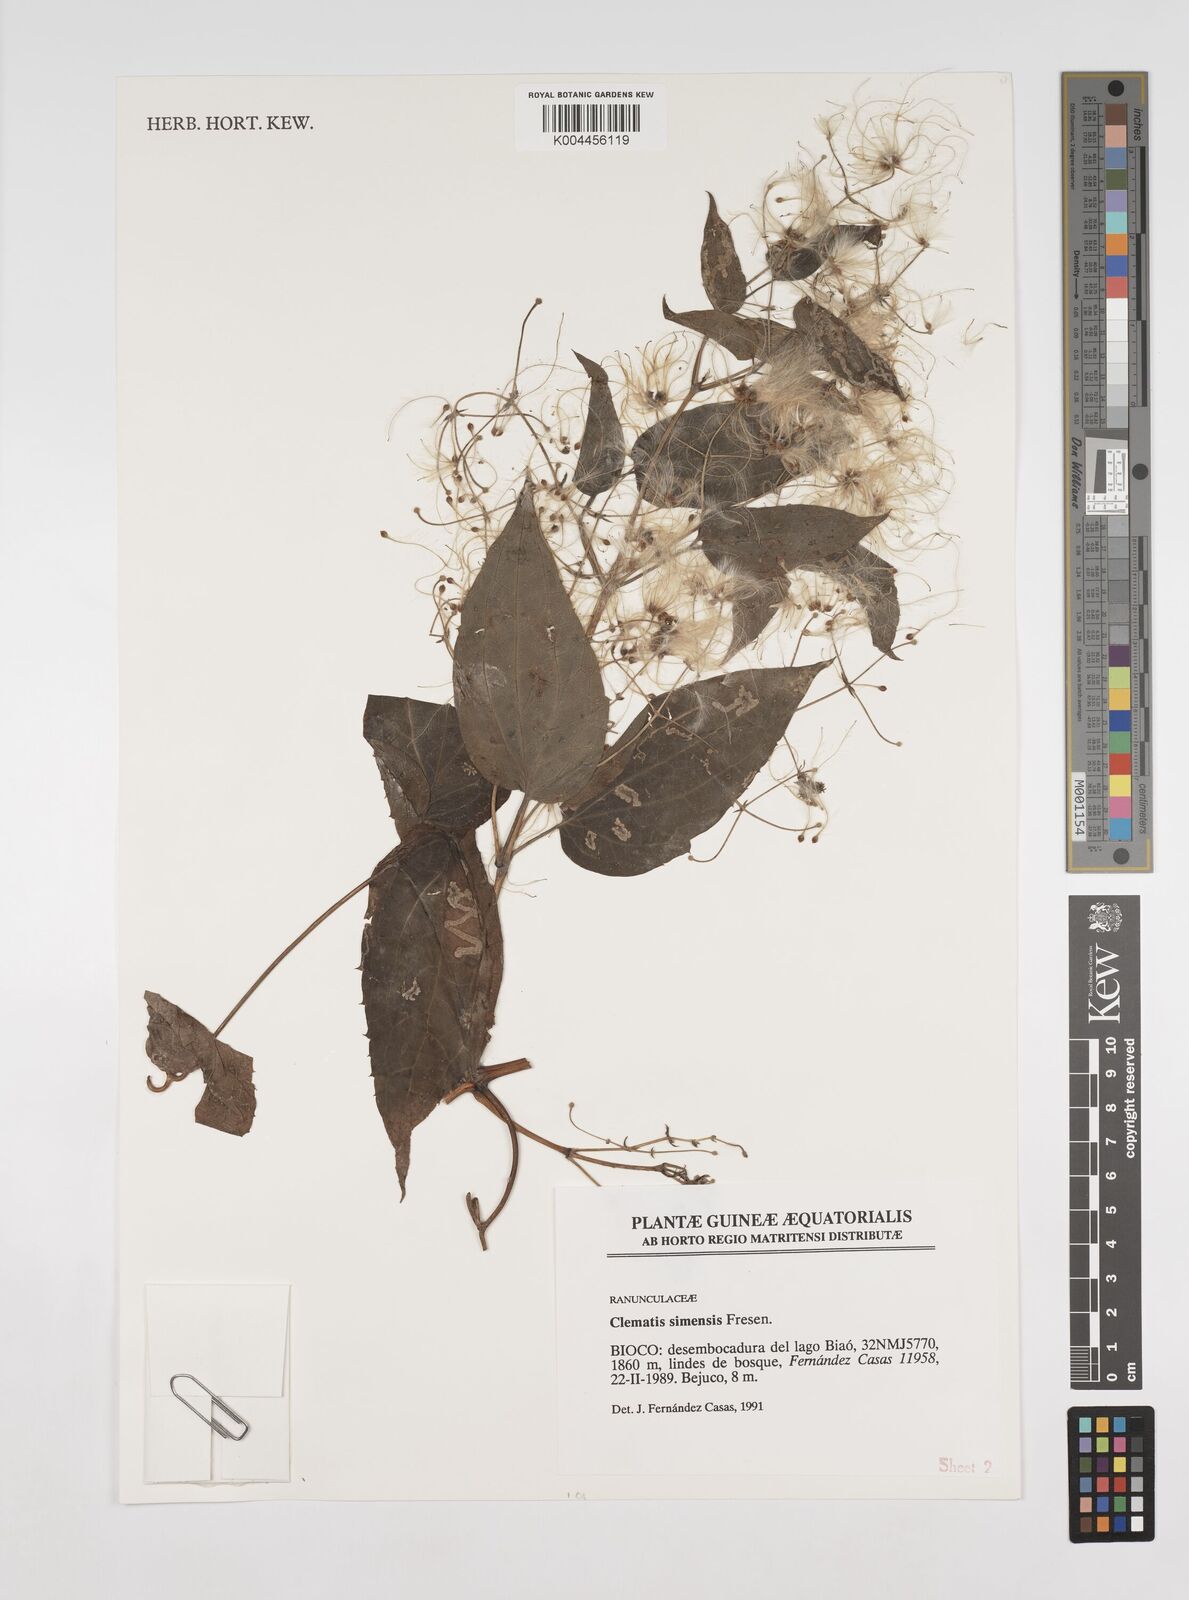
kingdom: Plantae
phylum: Tracheophyta
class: Magnoliopsida
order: Ranunculales
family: Ranunculaceae
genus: Clematis
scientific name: Clematis simensis
